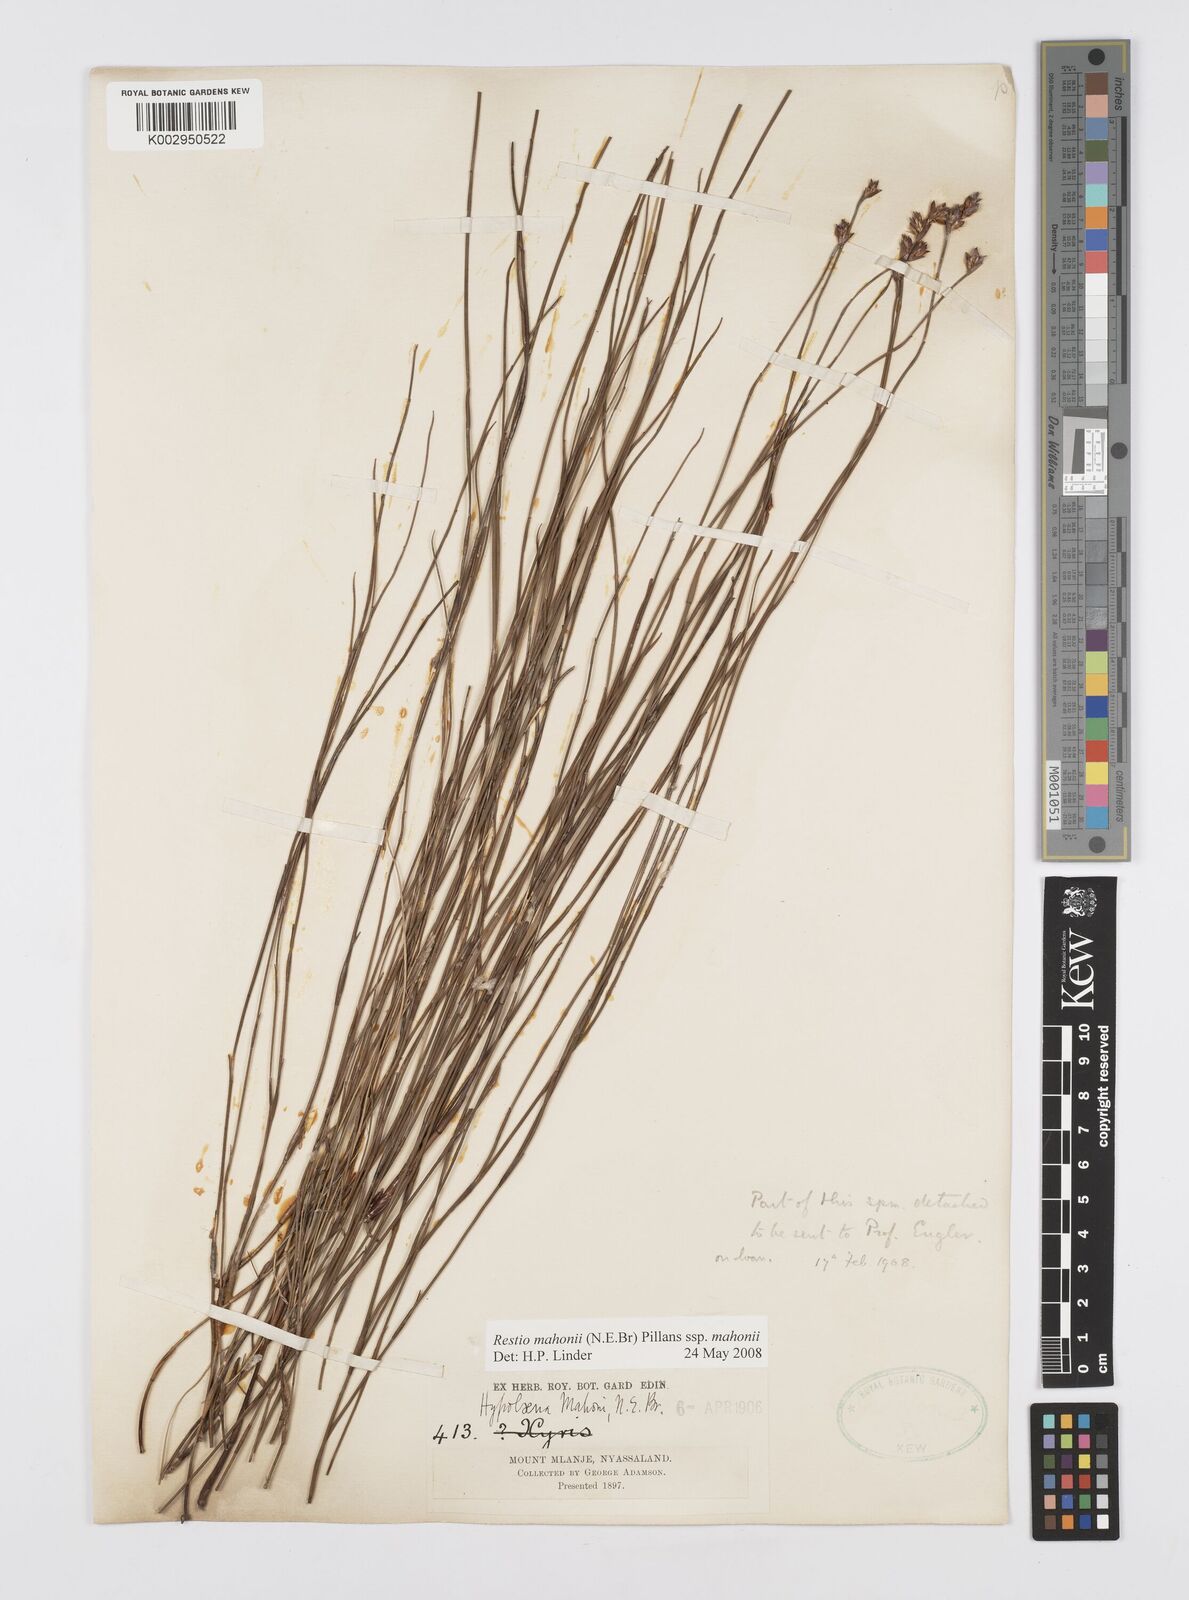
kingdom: Plantae
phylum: Tracheophyta
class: Liliopsida
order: Poales
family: Restionaceae
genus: Platycaulos
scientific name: Platycaulos mahonii
